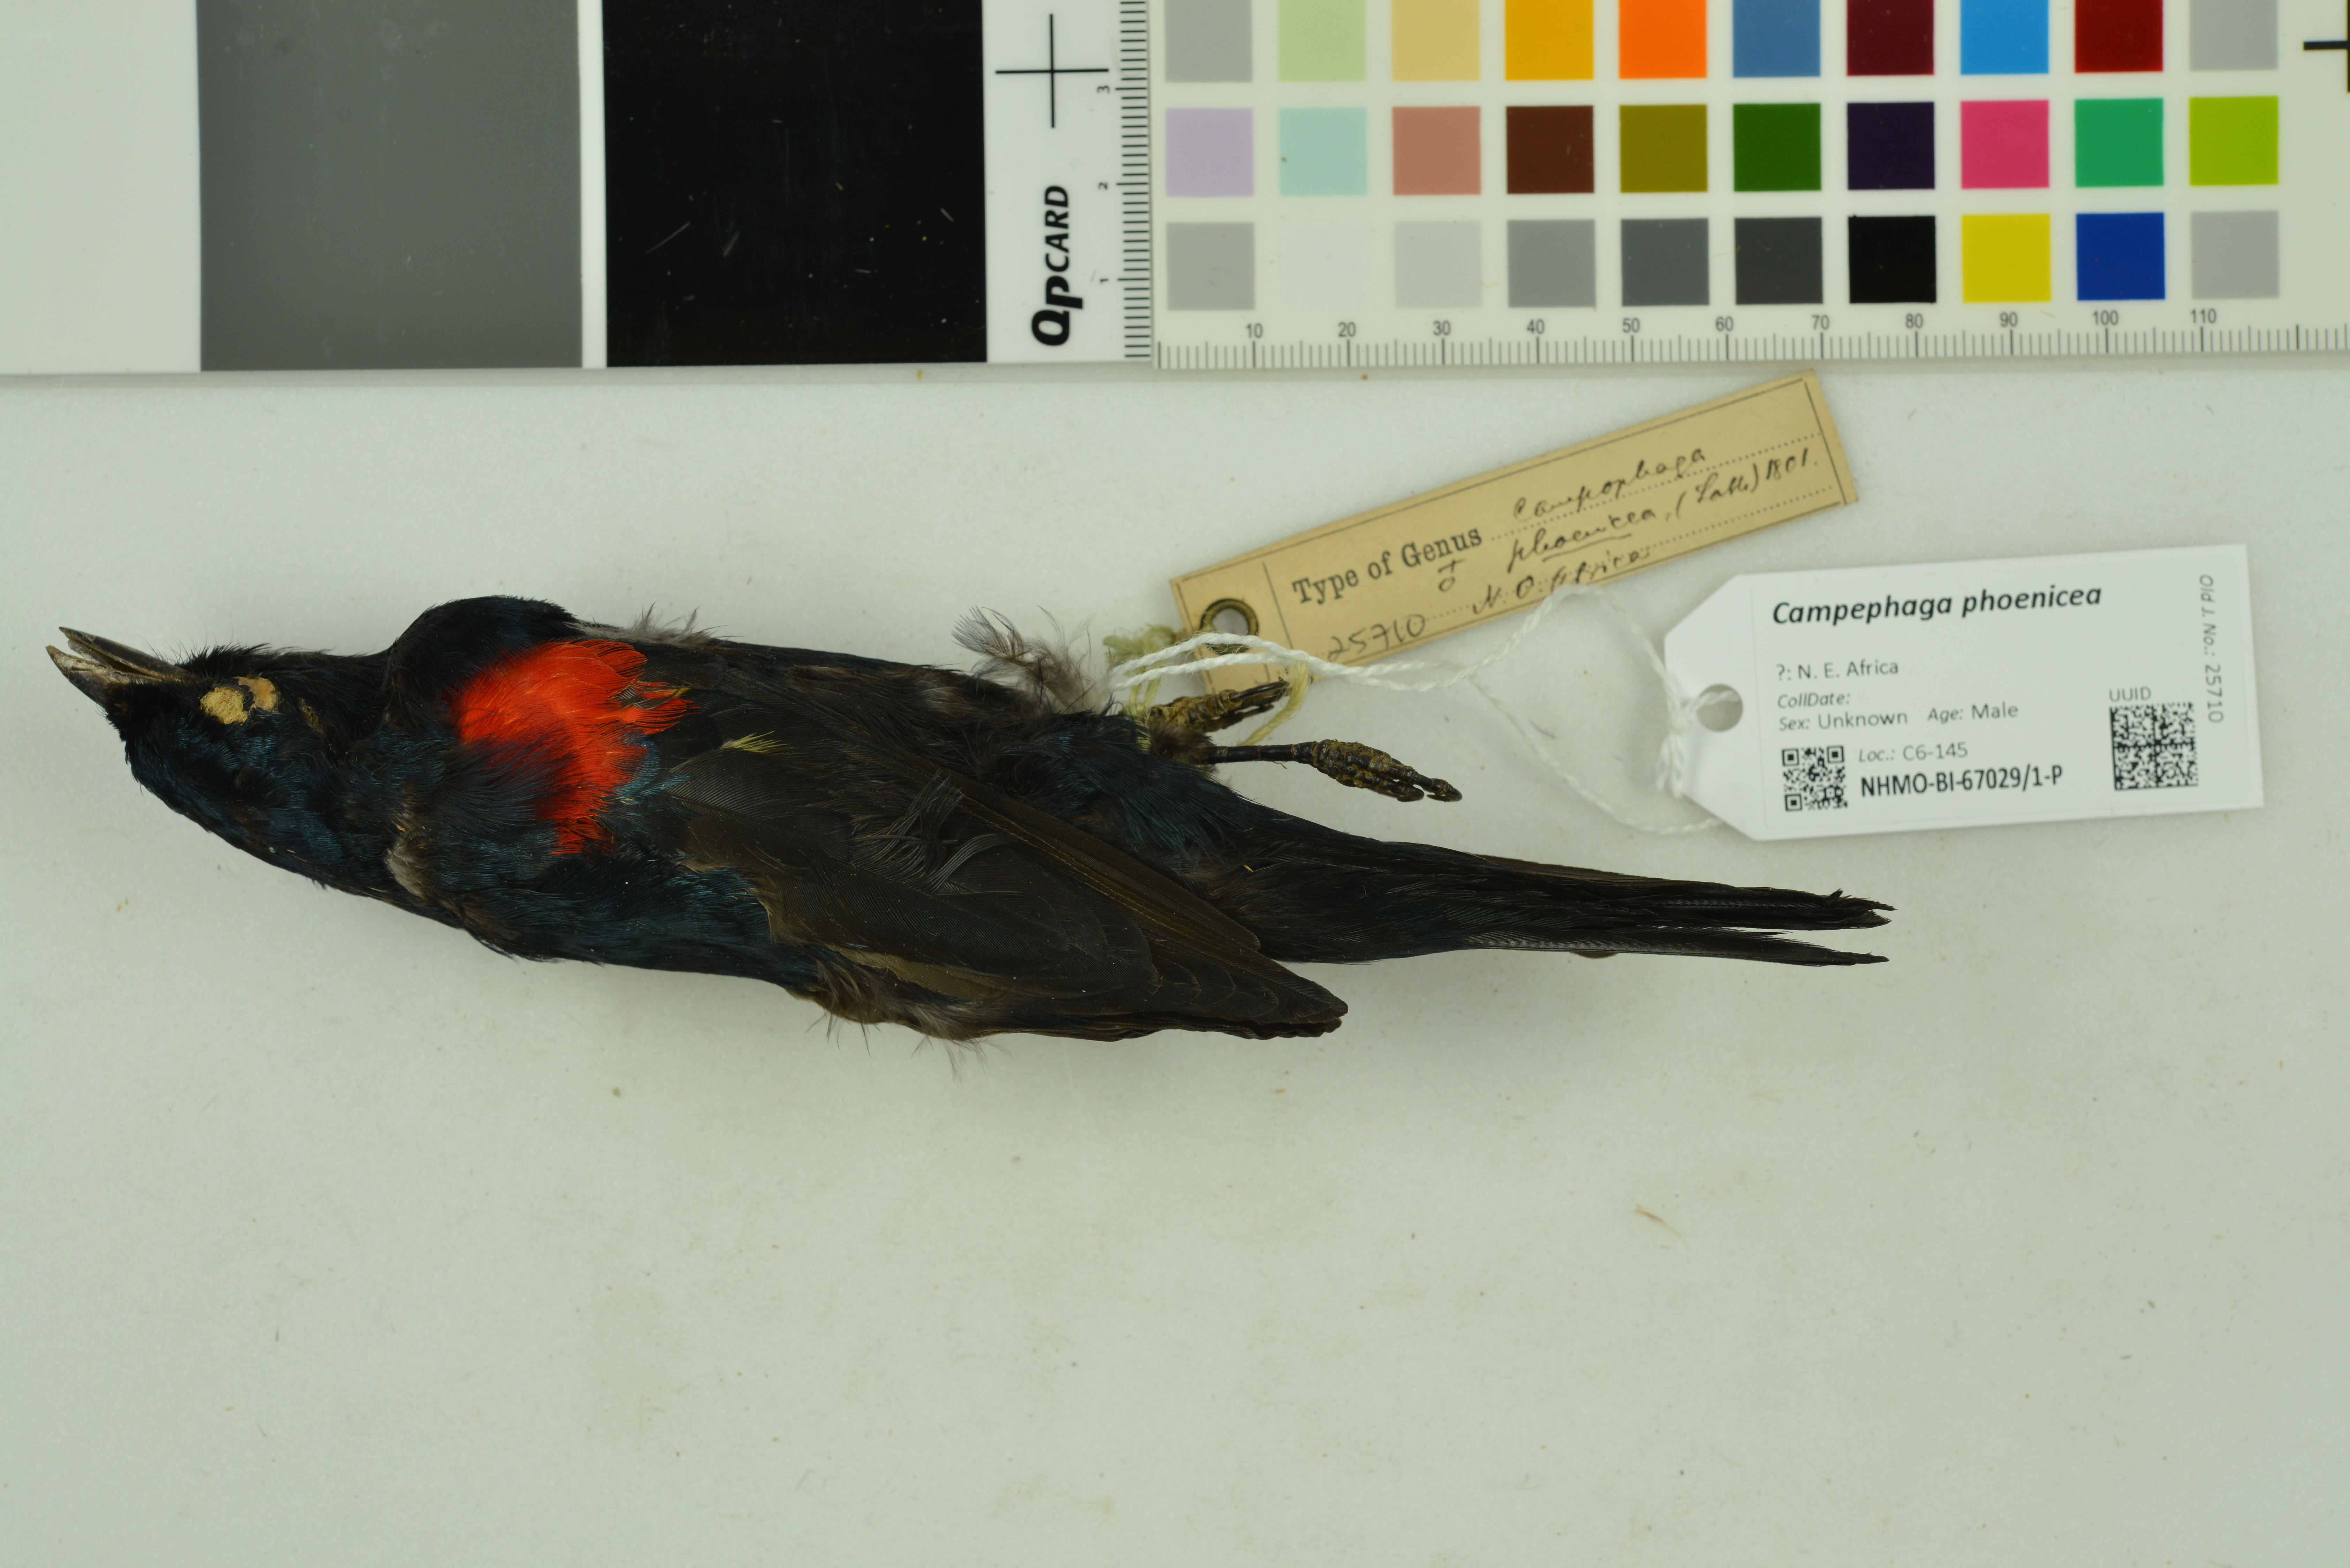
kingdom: Animalia
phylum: Chordata
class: Aves
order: Passeriformes
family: Campephagidae
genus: Campephaga
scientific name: Campephaga phoenicea
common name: Red-shouldered cuckooshrike
